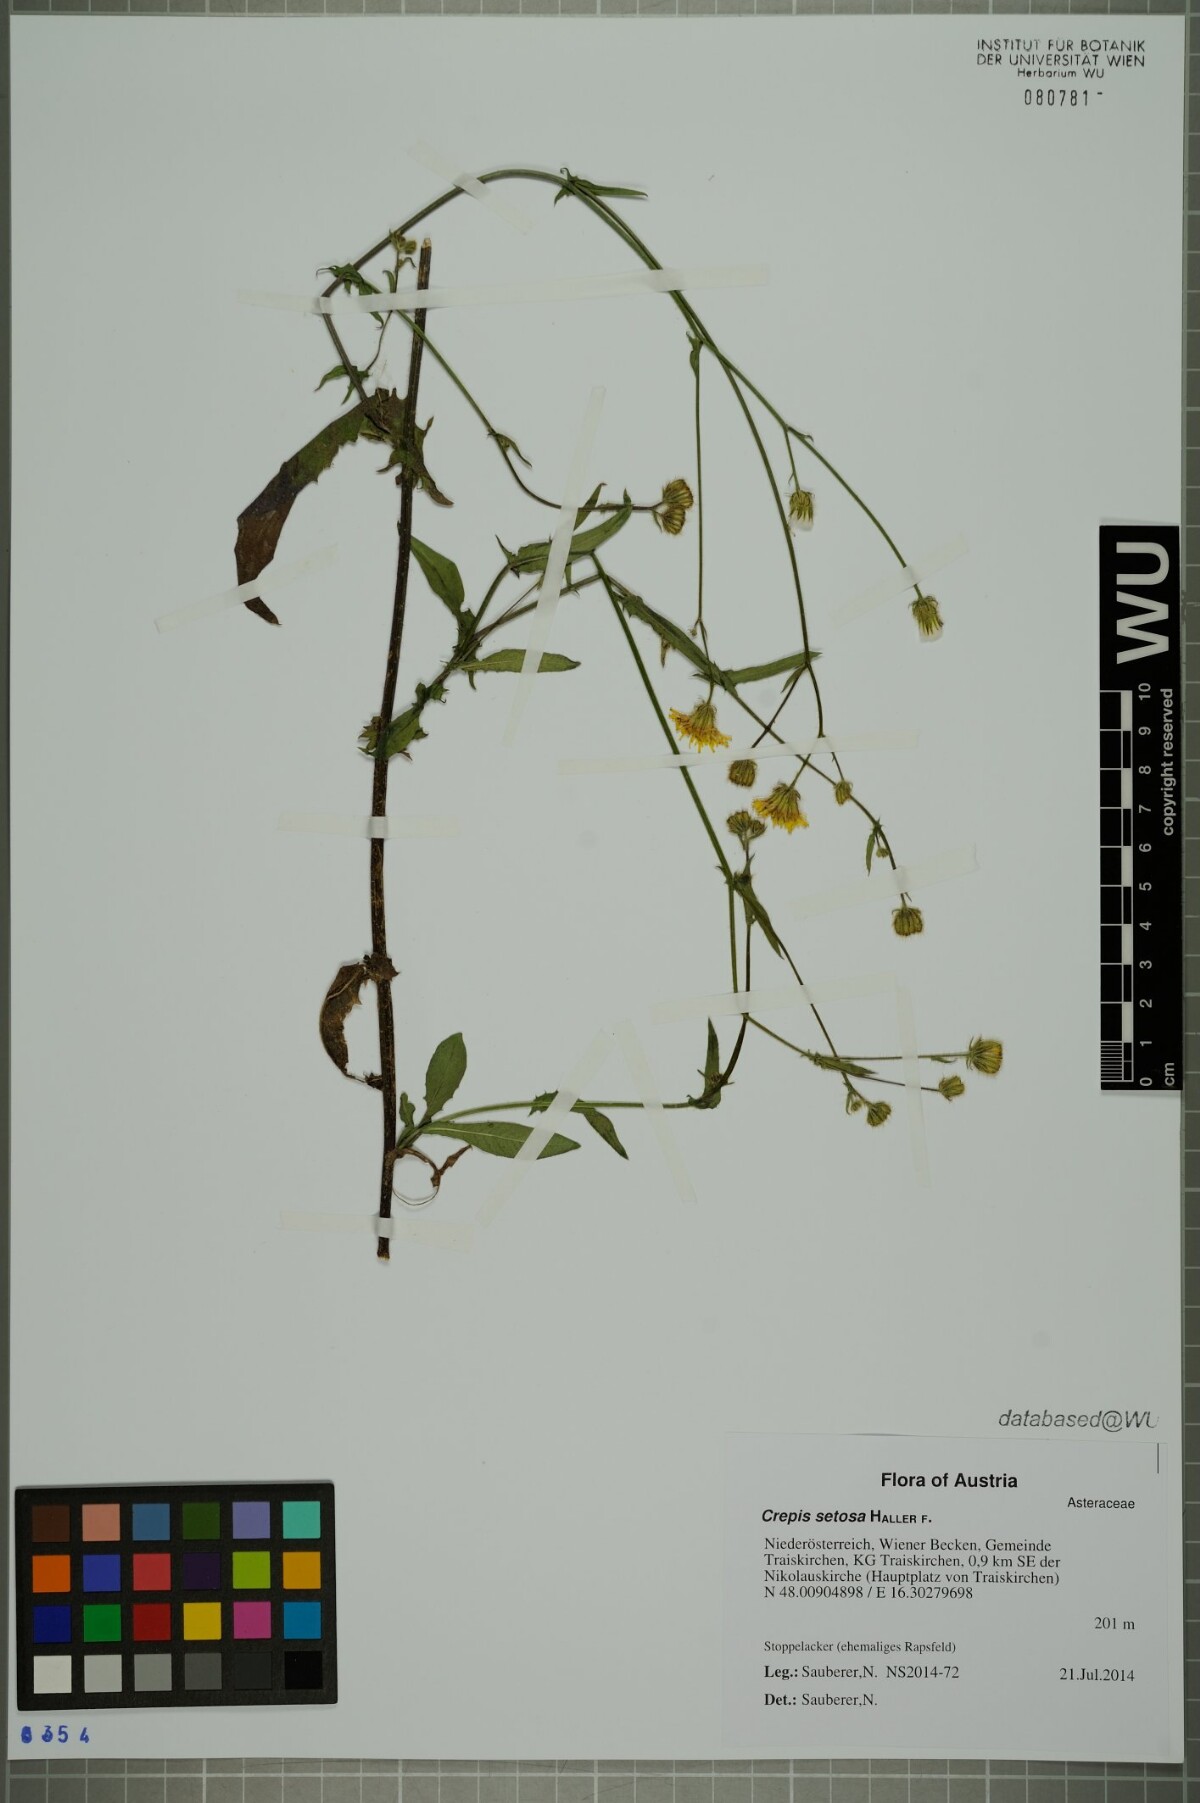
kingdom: Plantae
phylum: Tracheophyta
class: Magnoliopsida
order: Asterales
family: Asteraceae
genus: Crepis
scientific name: Crepis setosa
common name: Bristly hawk's-beard
